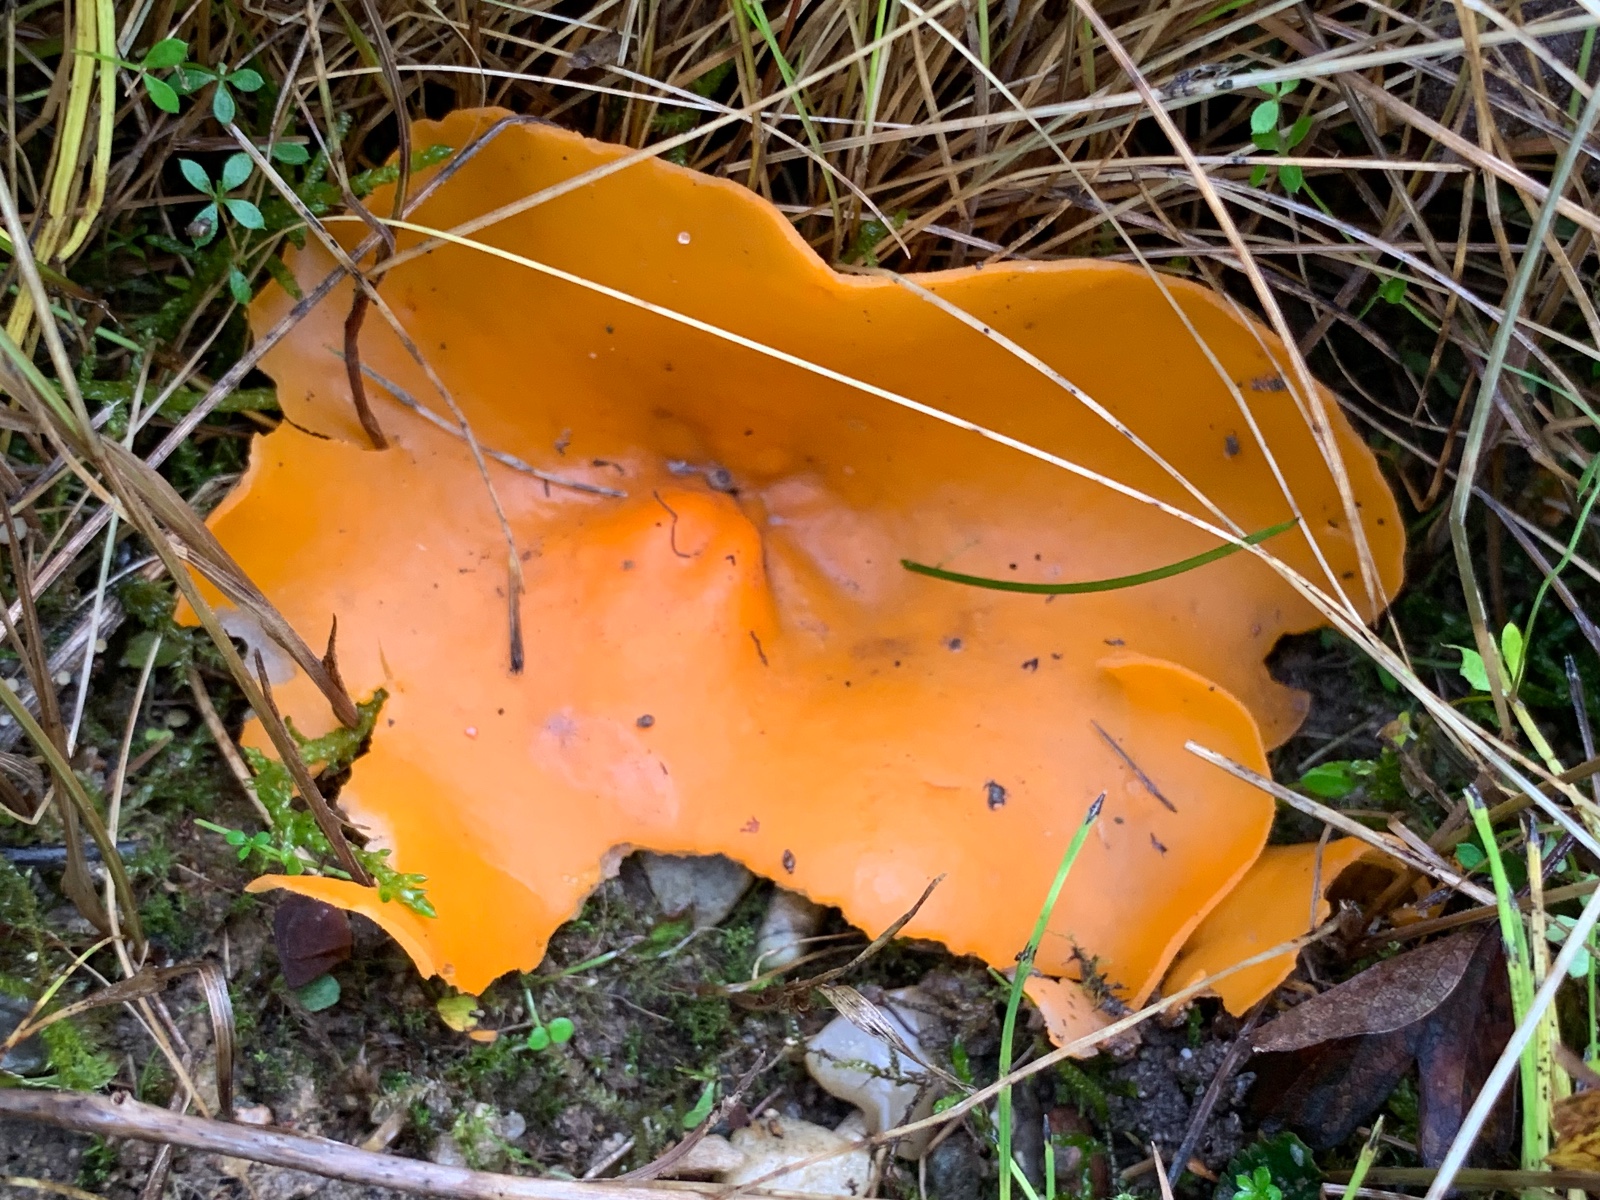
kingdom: Fungi
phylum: Ascomycota
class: Pezizomycetes
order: Pezizales
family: Pyronemataceae
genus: Aleuria
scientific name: Aleuria aurantia
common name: almindelig orangebæger
